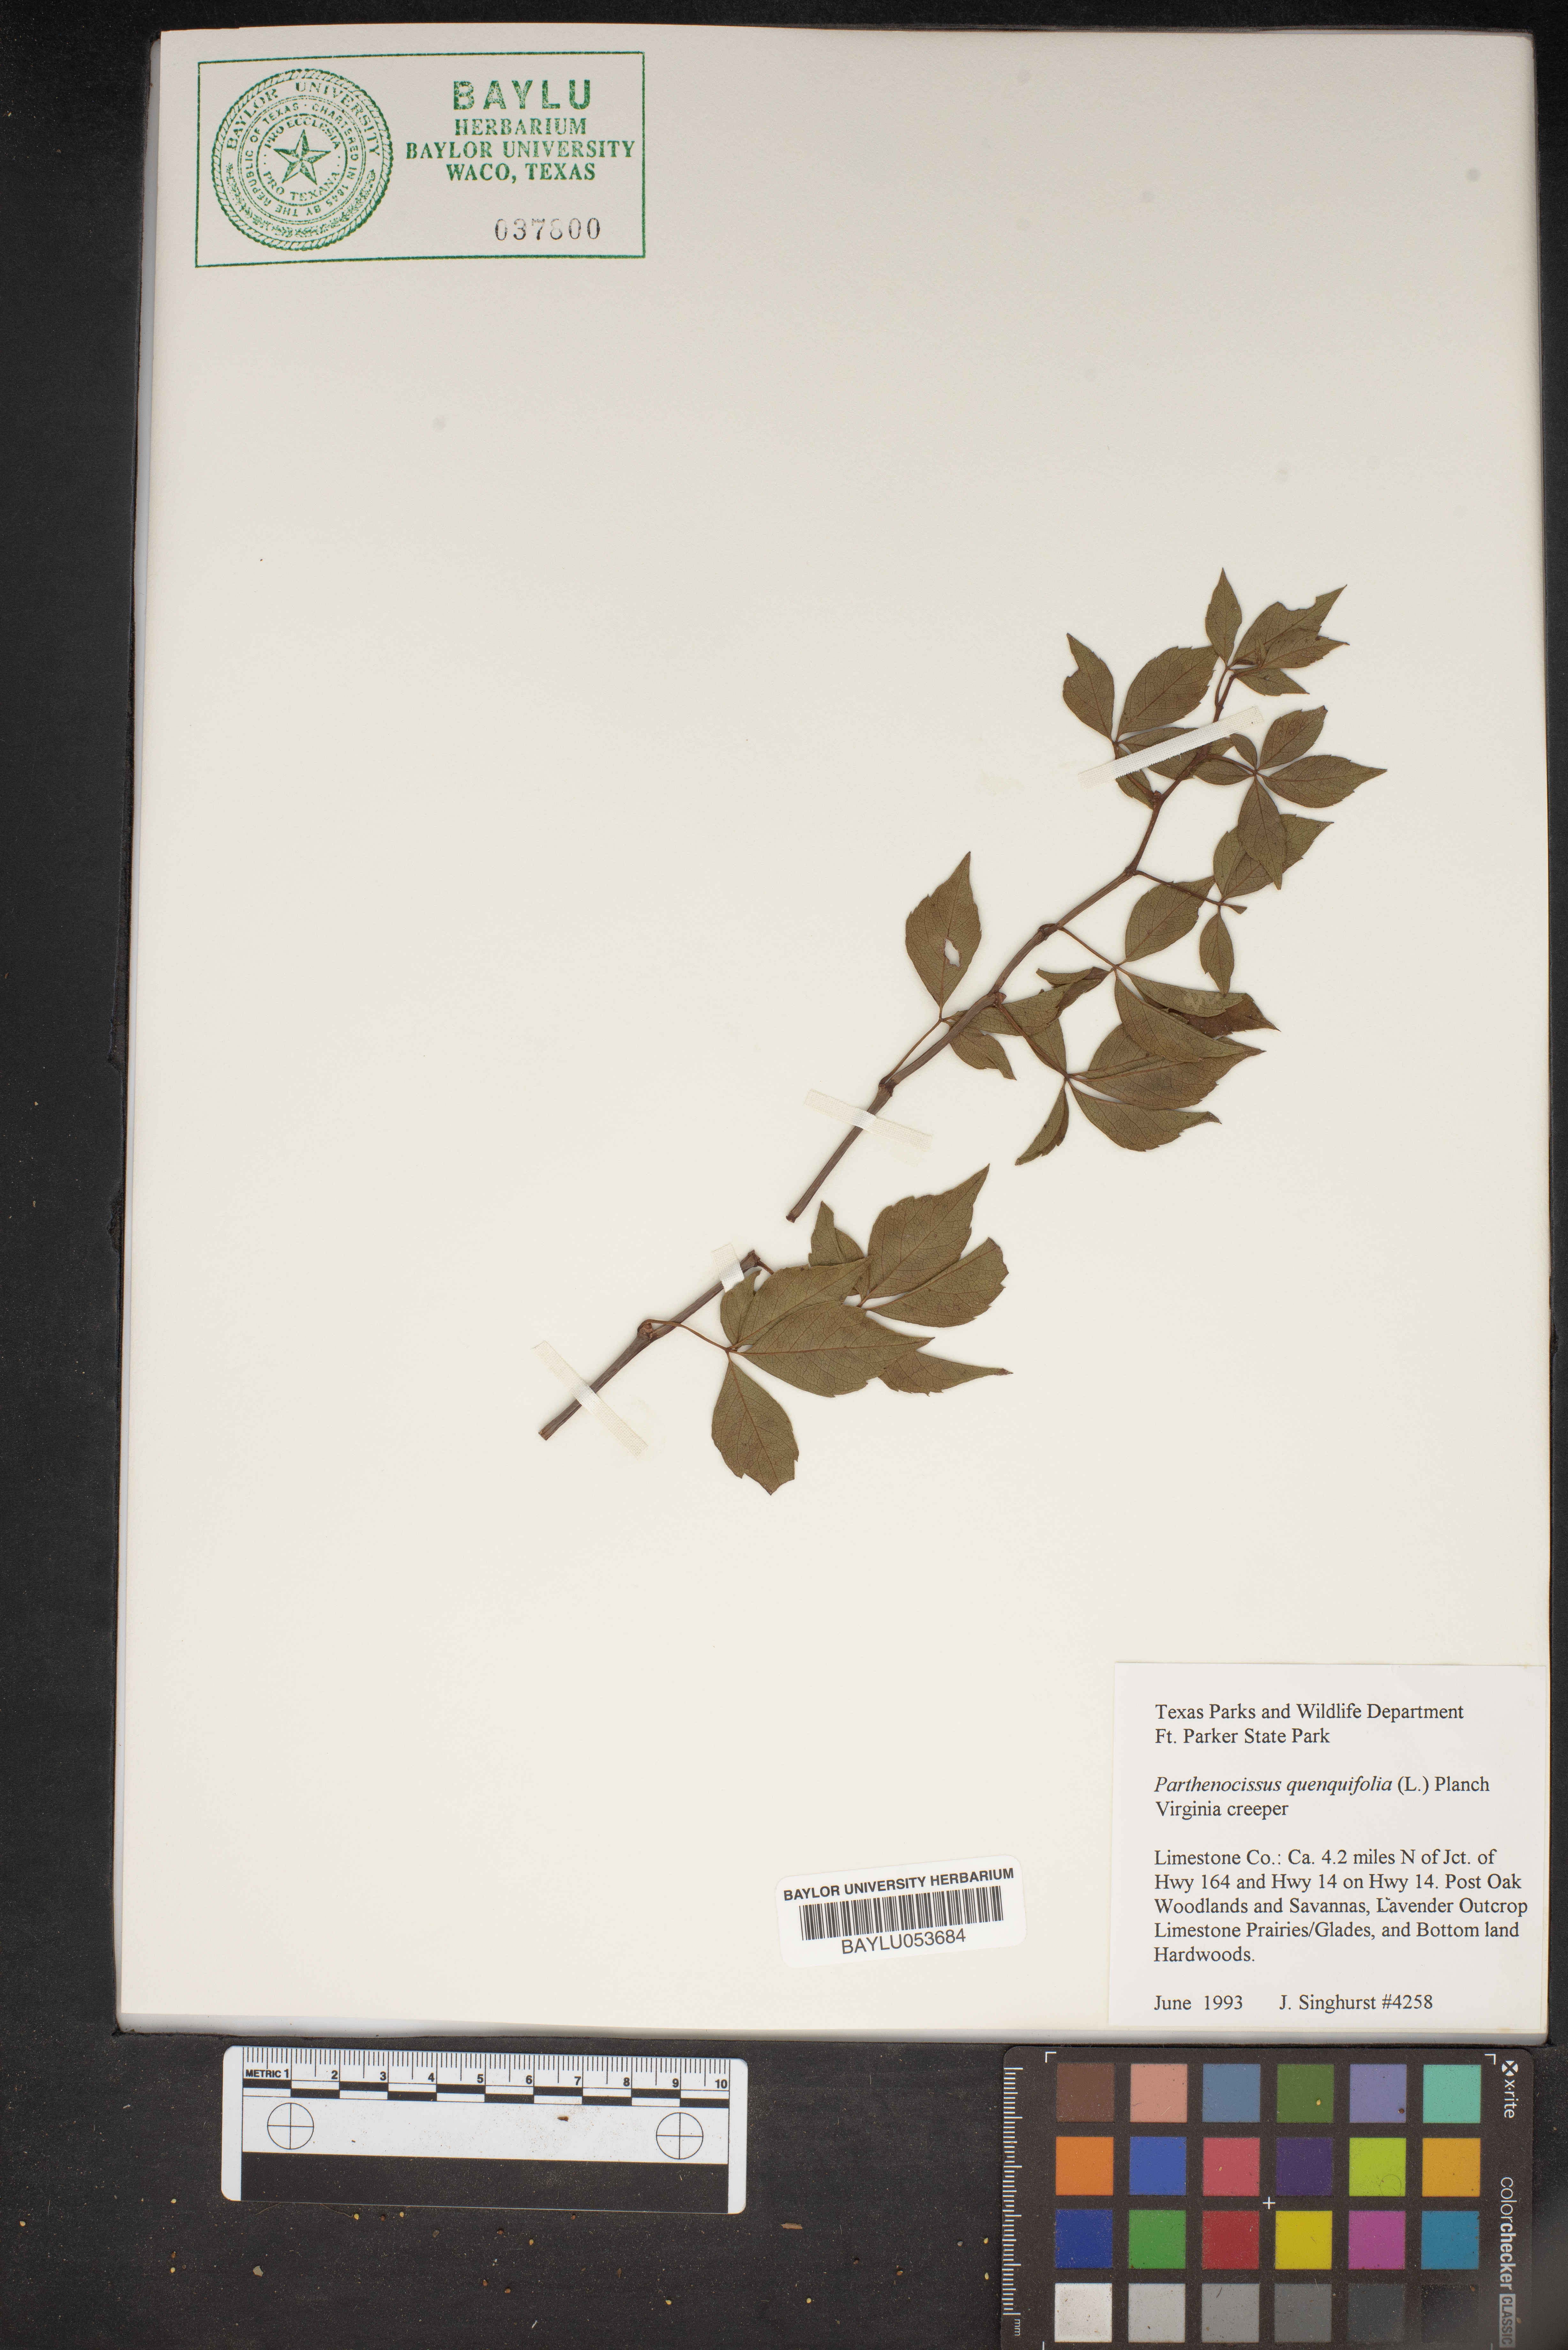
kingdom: Plantae
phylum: Tracheophyta
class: Magnoliopsida
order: Vitales
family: Vitaceae
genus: Parthenocissus
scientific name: Parthenocissus quinquefolia
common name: Virginia-creeper
